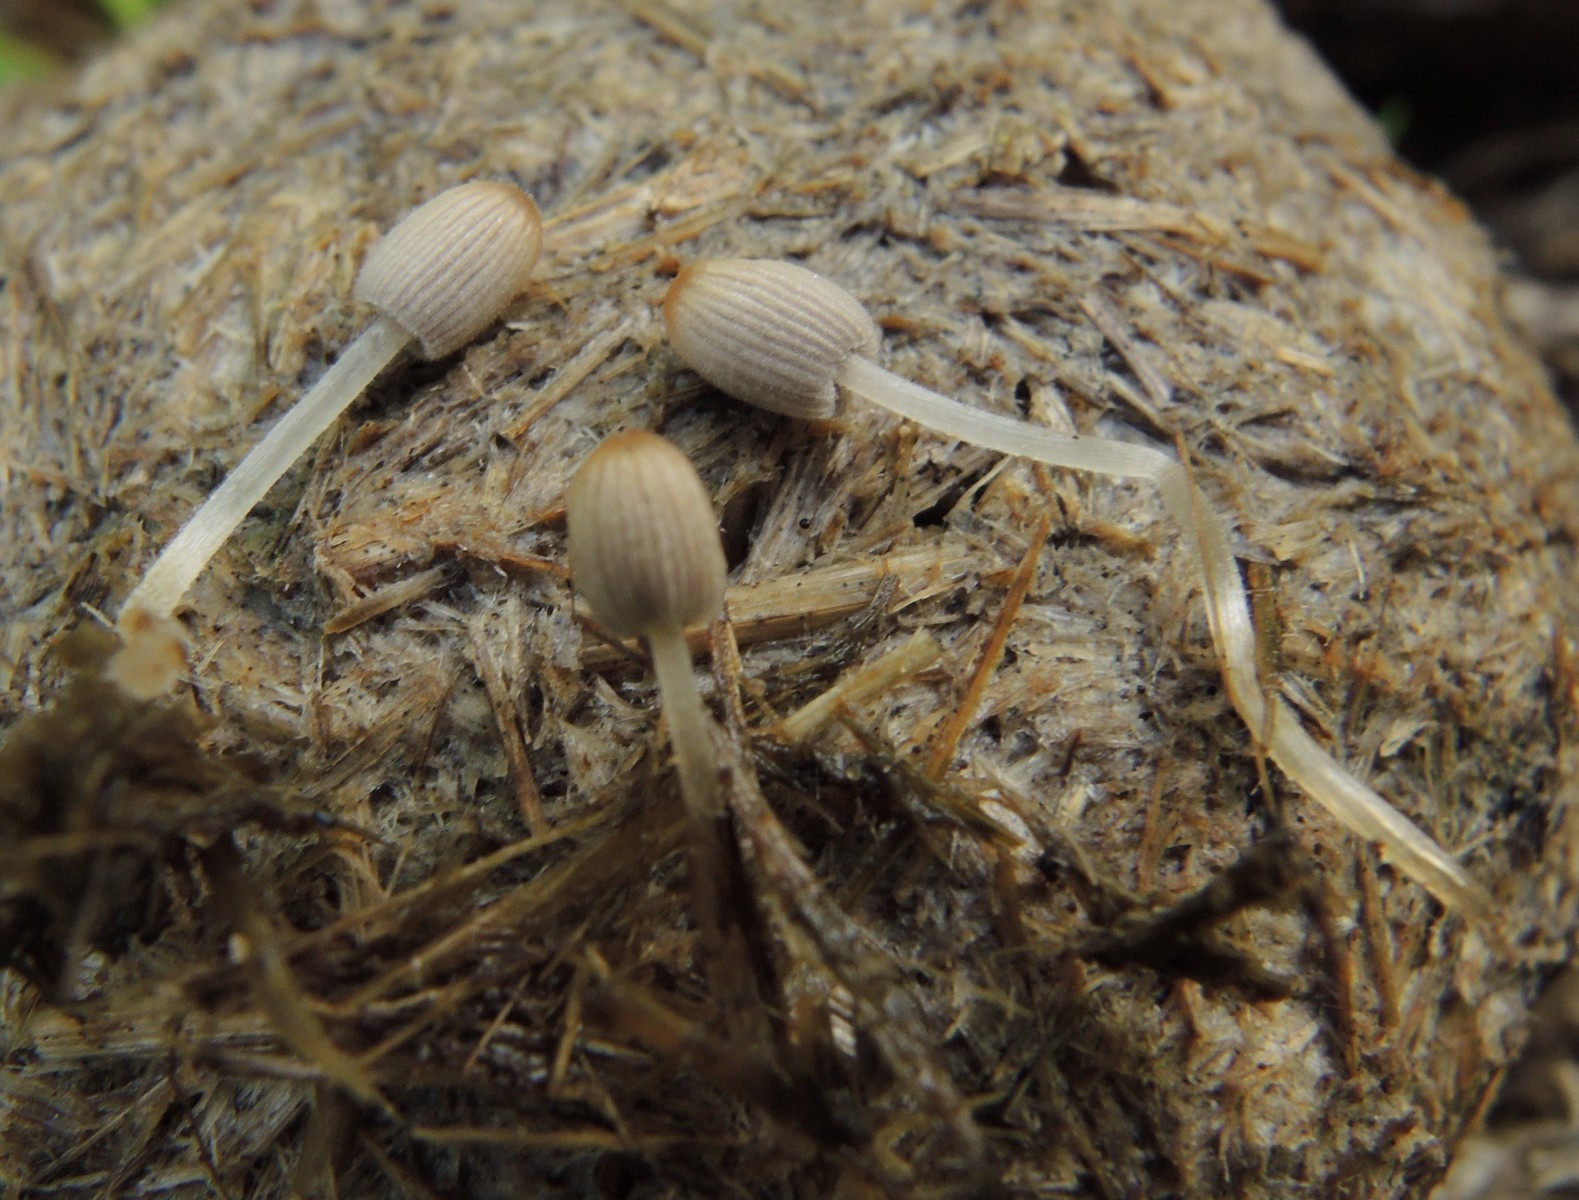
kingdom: Fungi
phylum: Basidiomycota
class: Agaricomycetes
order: Agaricales
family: Psathyrellaceae
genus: Tulosesus
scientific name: Tulosesus ephemerus
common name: morgen-blækhat
